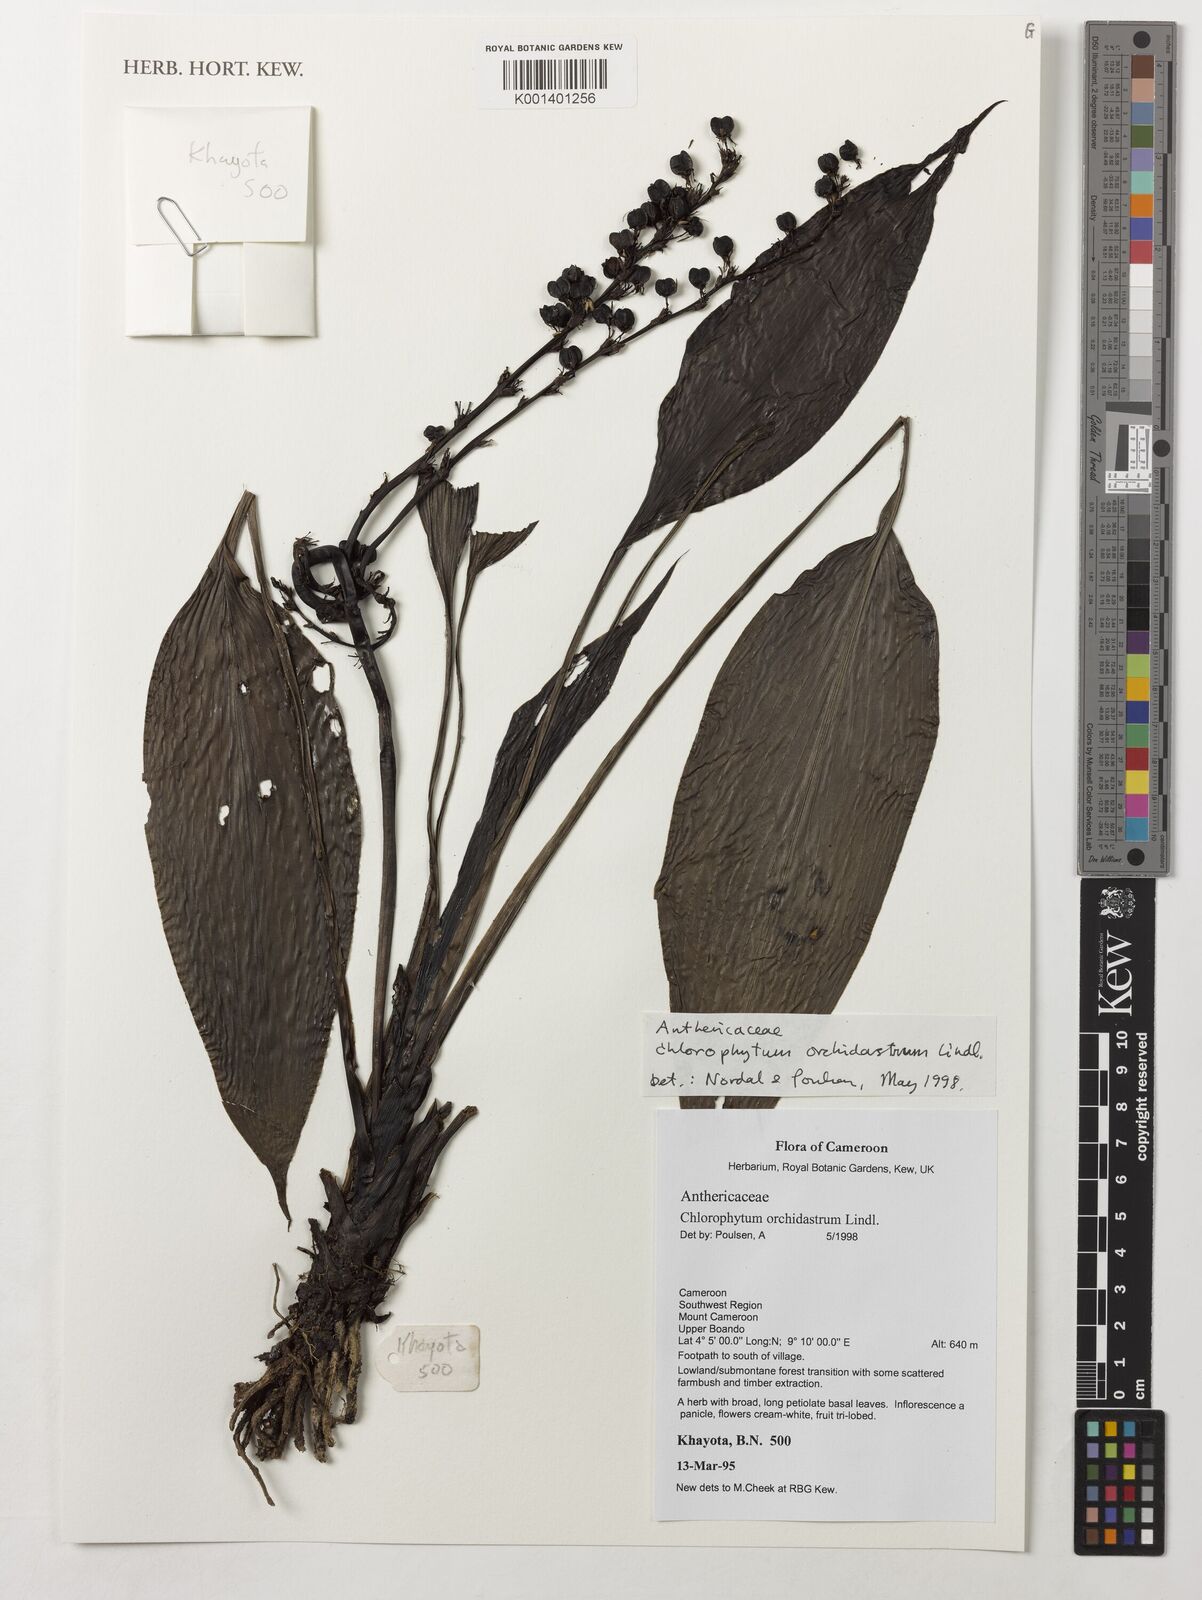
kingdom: Plantae
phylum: Tracheophyta
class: Liliopsida
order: Asparagales
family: Asparagaceae
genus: Chlorophytum
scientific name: Chlorophytum orchidastrum
